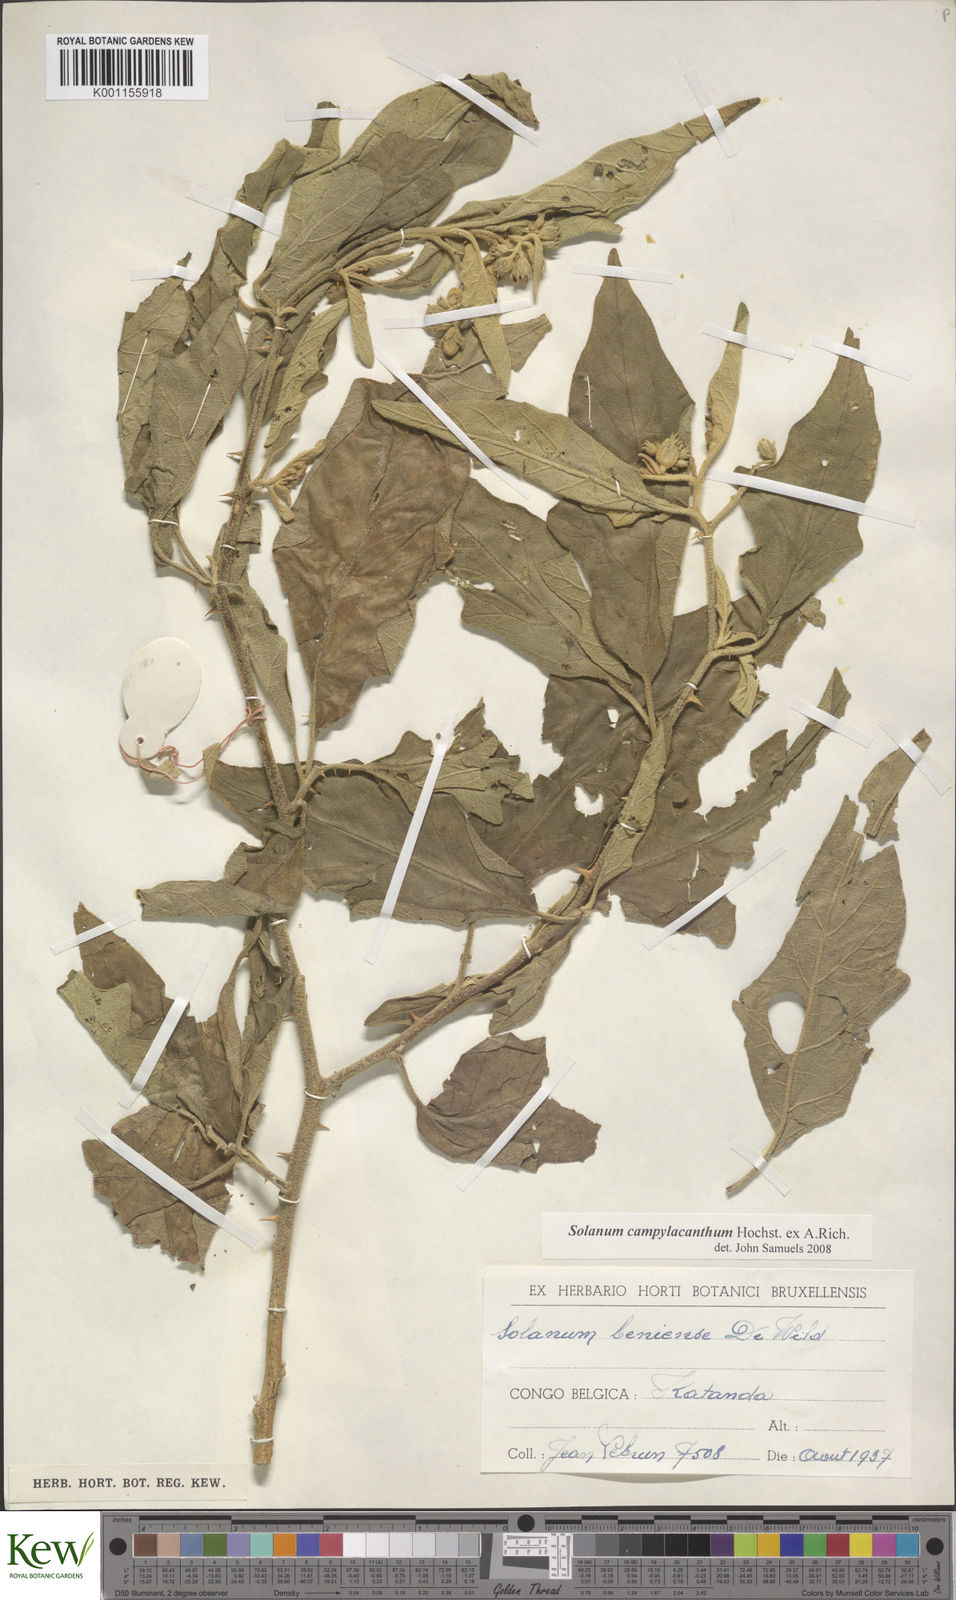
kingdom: Plantae
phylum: Tracheophyta
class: Magnoliopsida
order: Solanales
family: Solanaceae
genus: Solanum
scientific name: Solanum campylacanthum
